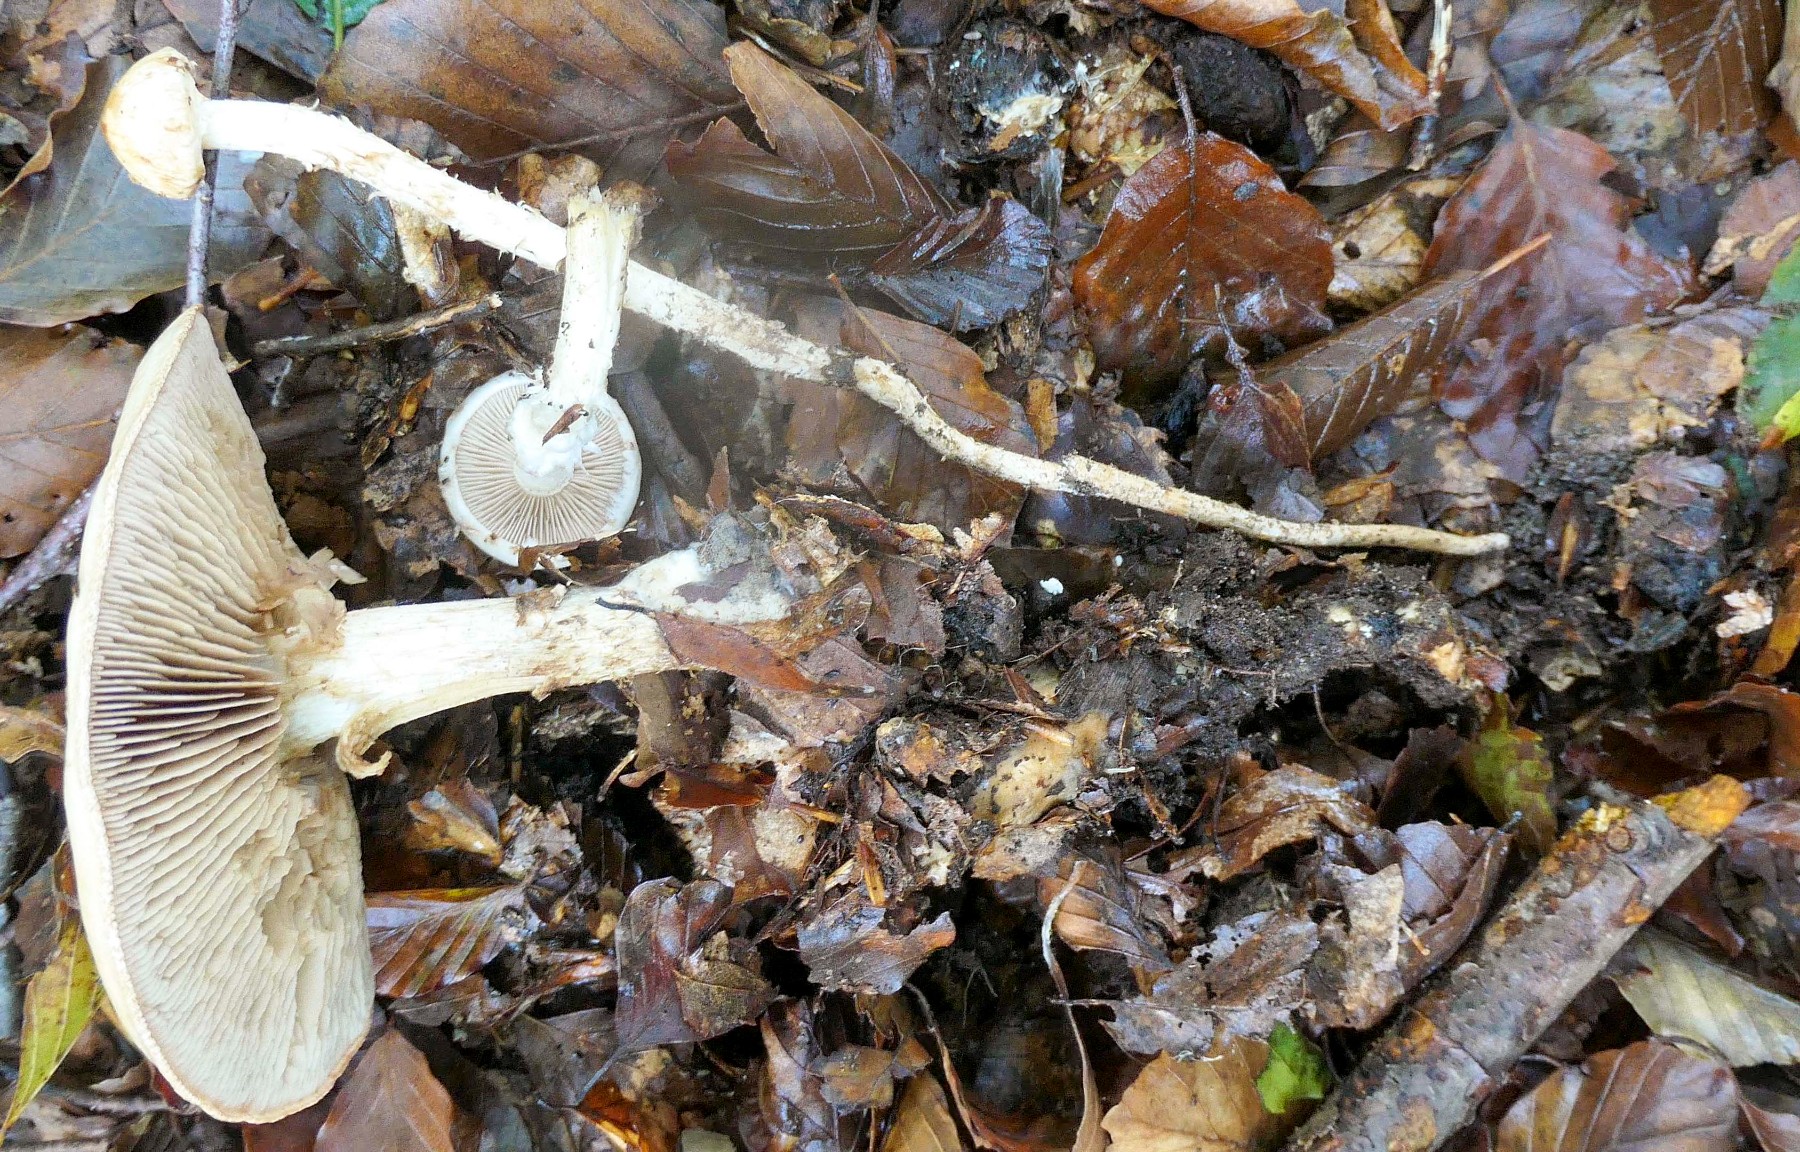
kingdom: Fungi
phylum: Basidiomycota
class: Agaricomycetes
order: Agaricales
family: Hymenogastraceae
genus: Hebeloma
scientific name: Hebeloma radicosum
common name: pælerods-tåreblad
